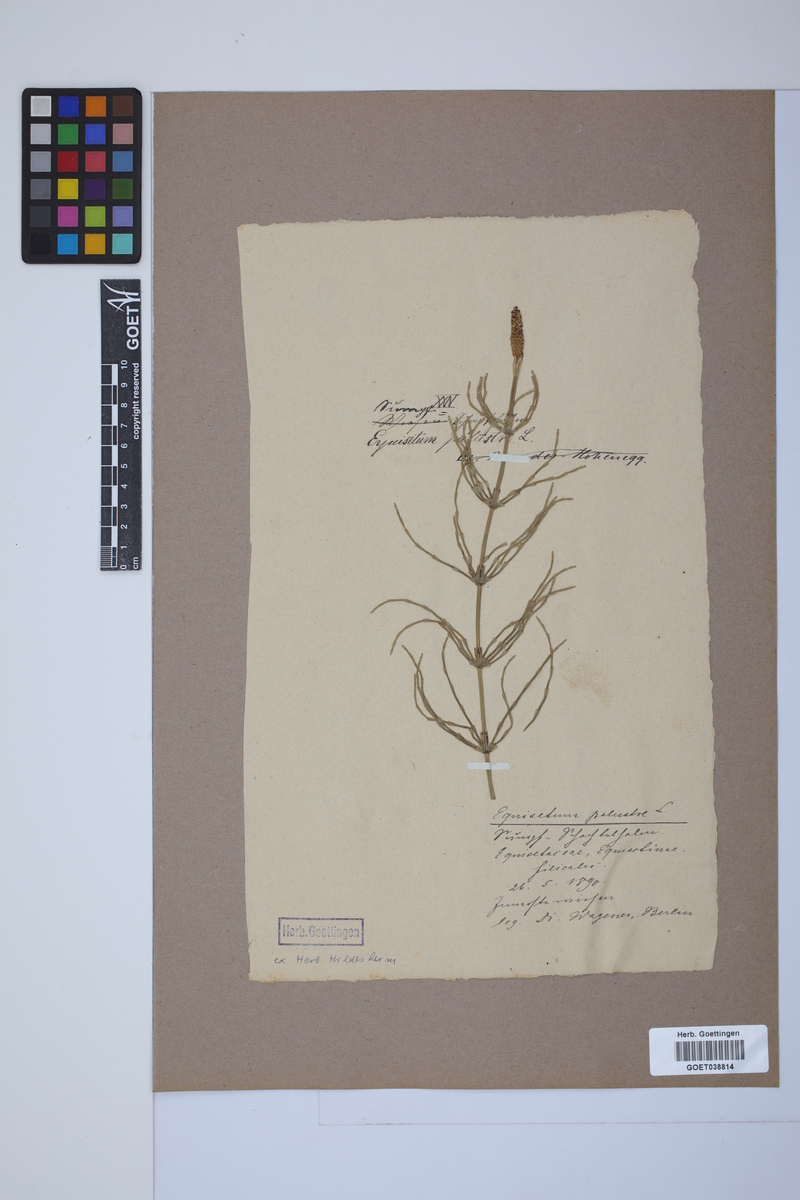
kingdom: Plantae
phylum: Tracheophyta
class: Polypodiopsida
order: Equisetales
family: Equisetaceae
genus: Equisetum
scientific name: Equisetum palustre
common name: Marsh horsetail
